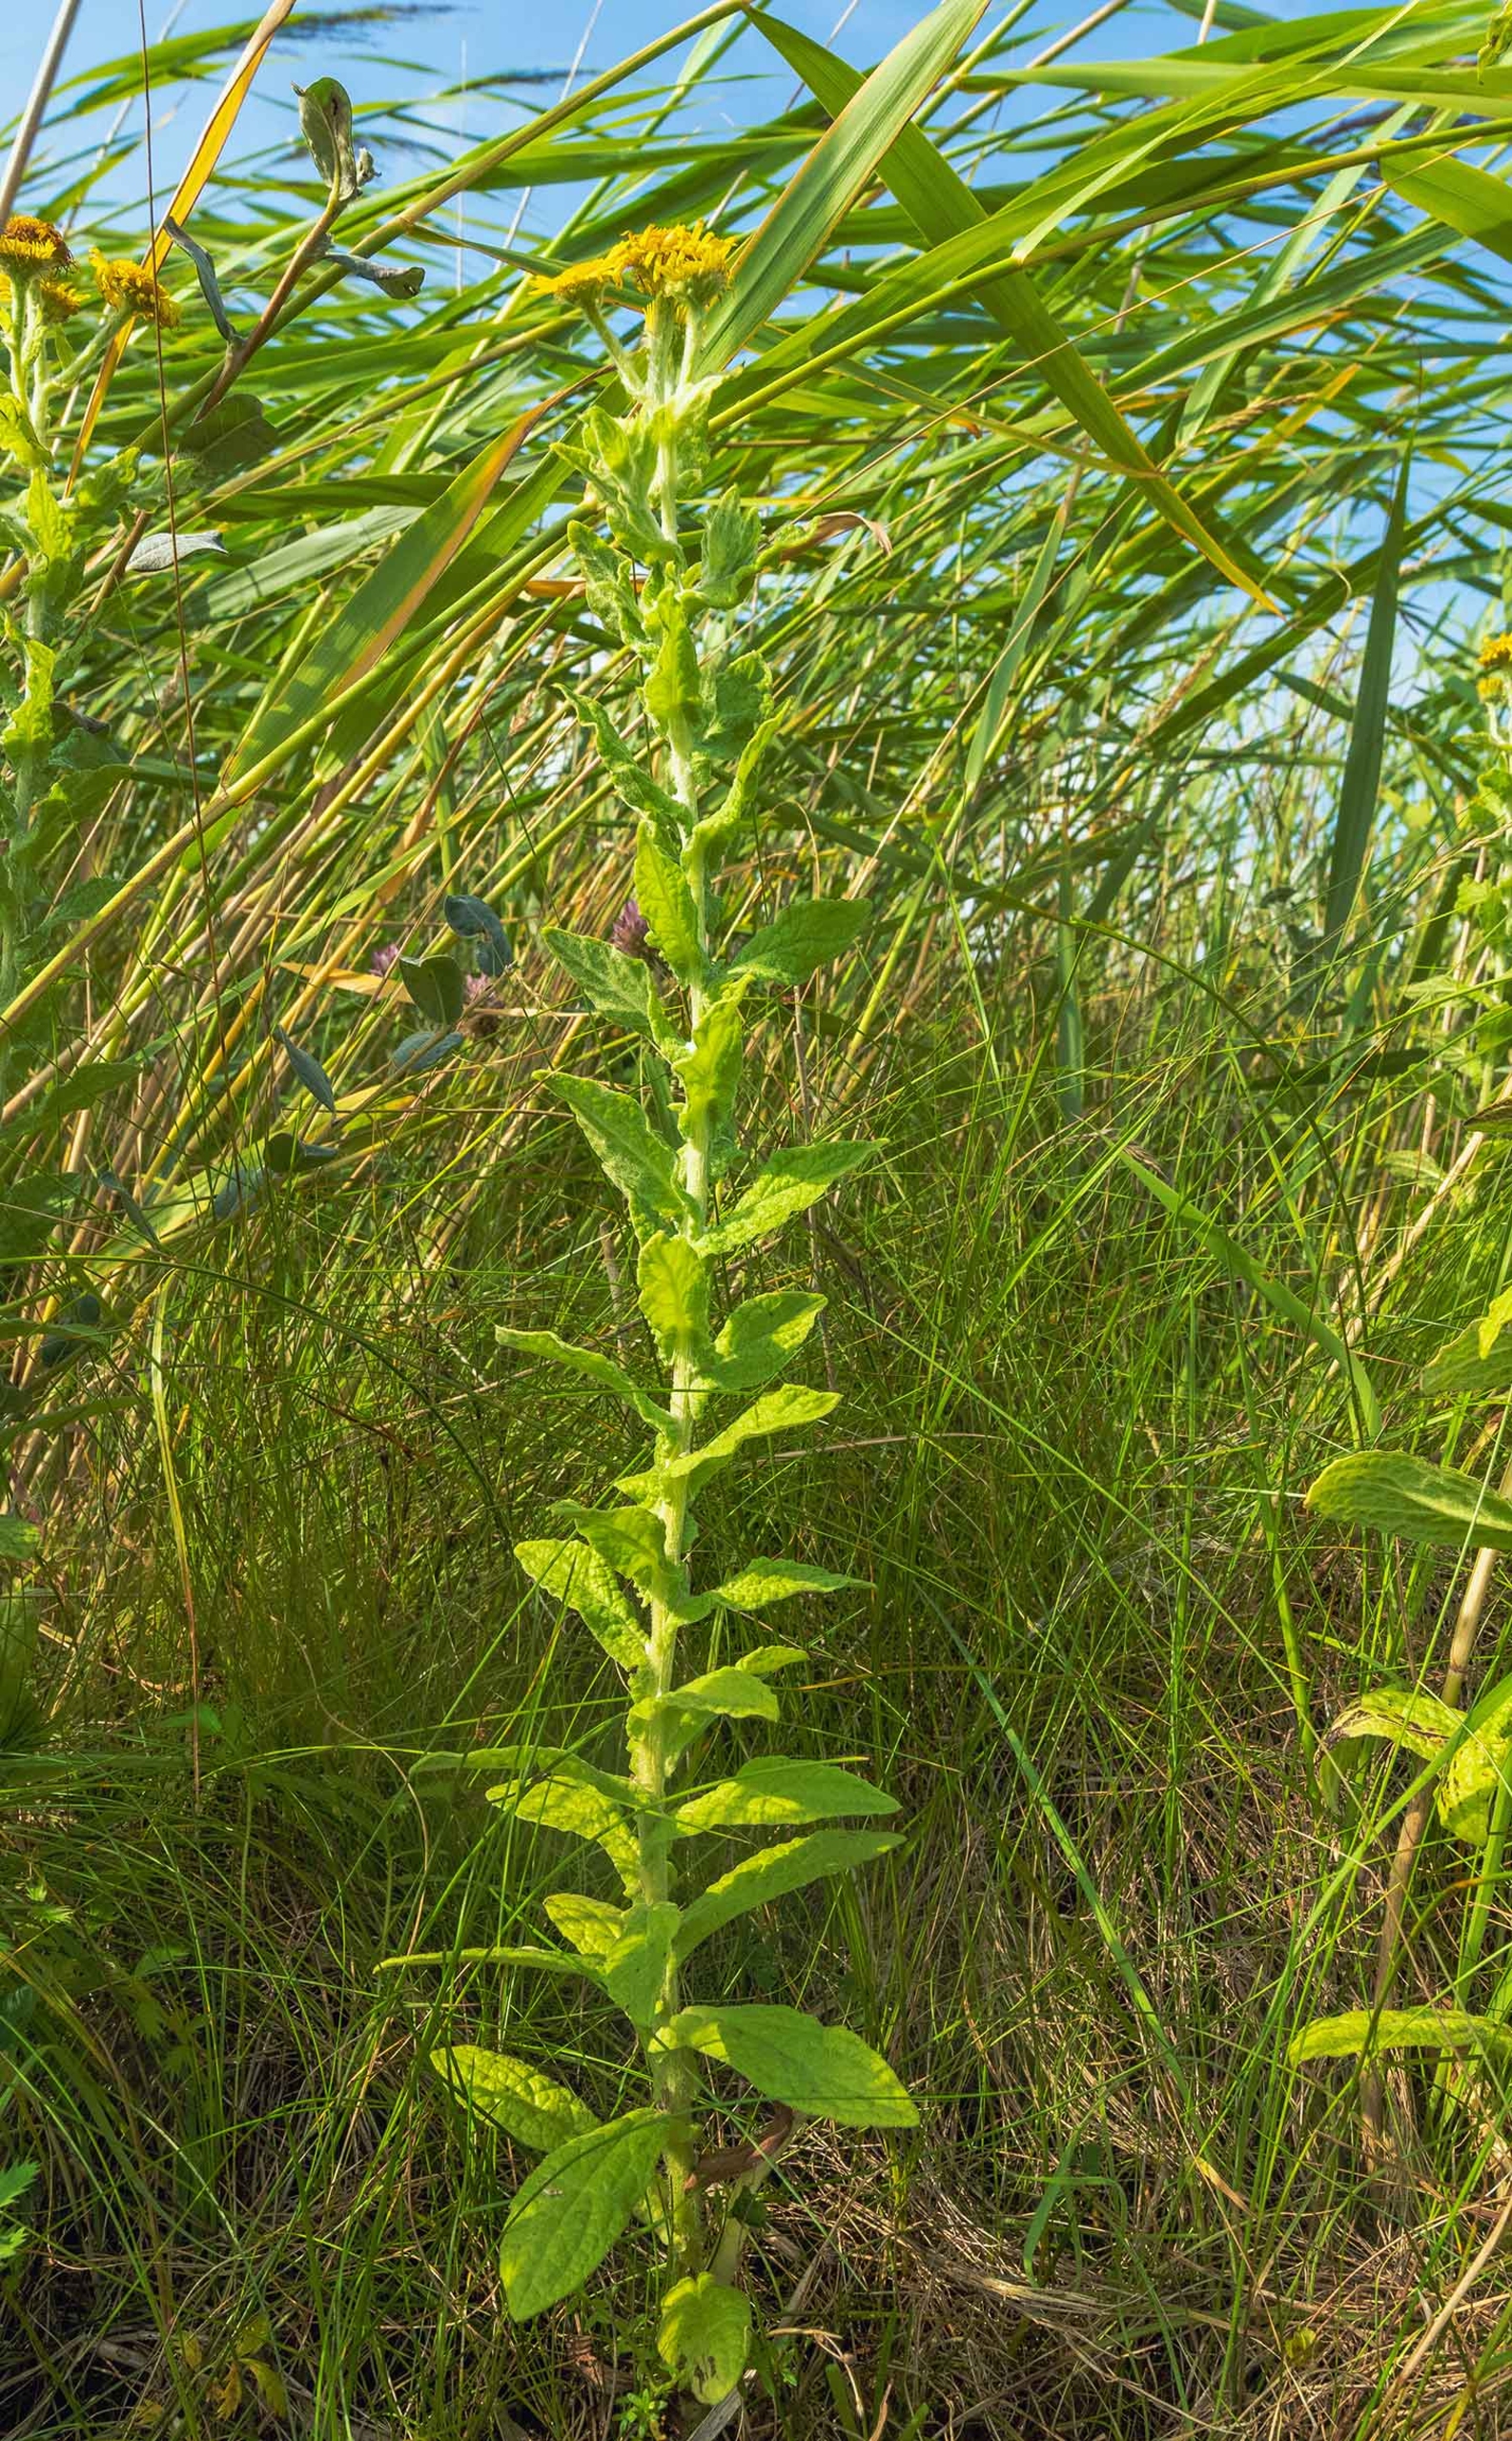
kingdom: Plantae
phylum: Tracheophyta
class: Magnoliopsida
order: Asterales
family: Asteraceae
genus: Pulicaria
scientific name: Pulicaria dysenterica
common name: Strand-loppeurt
